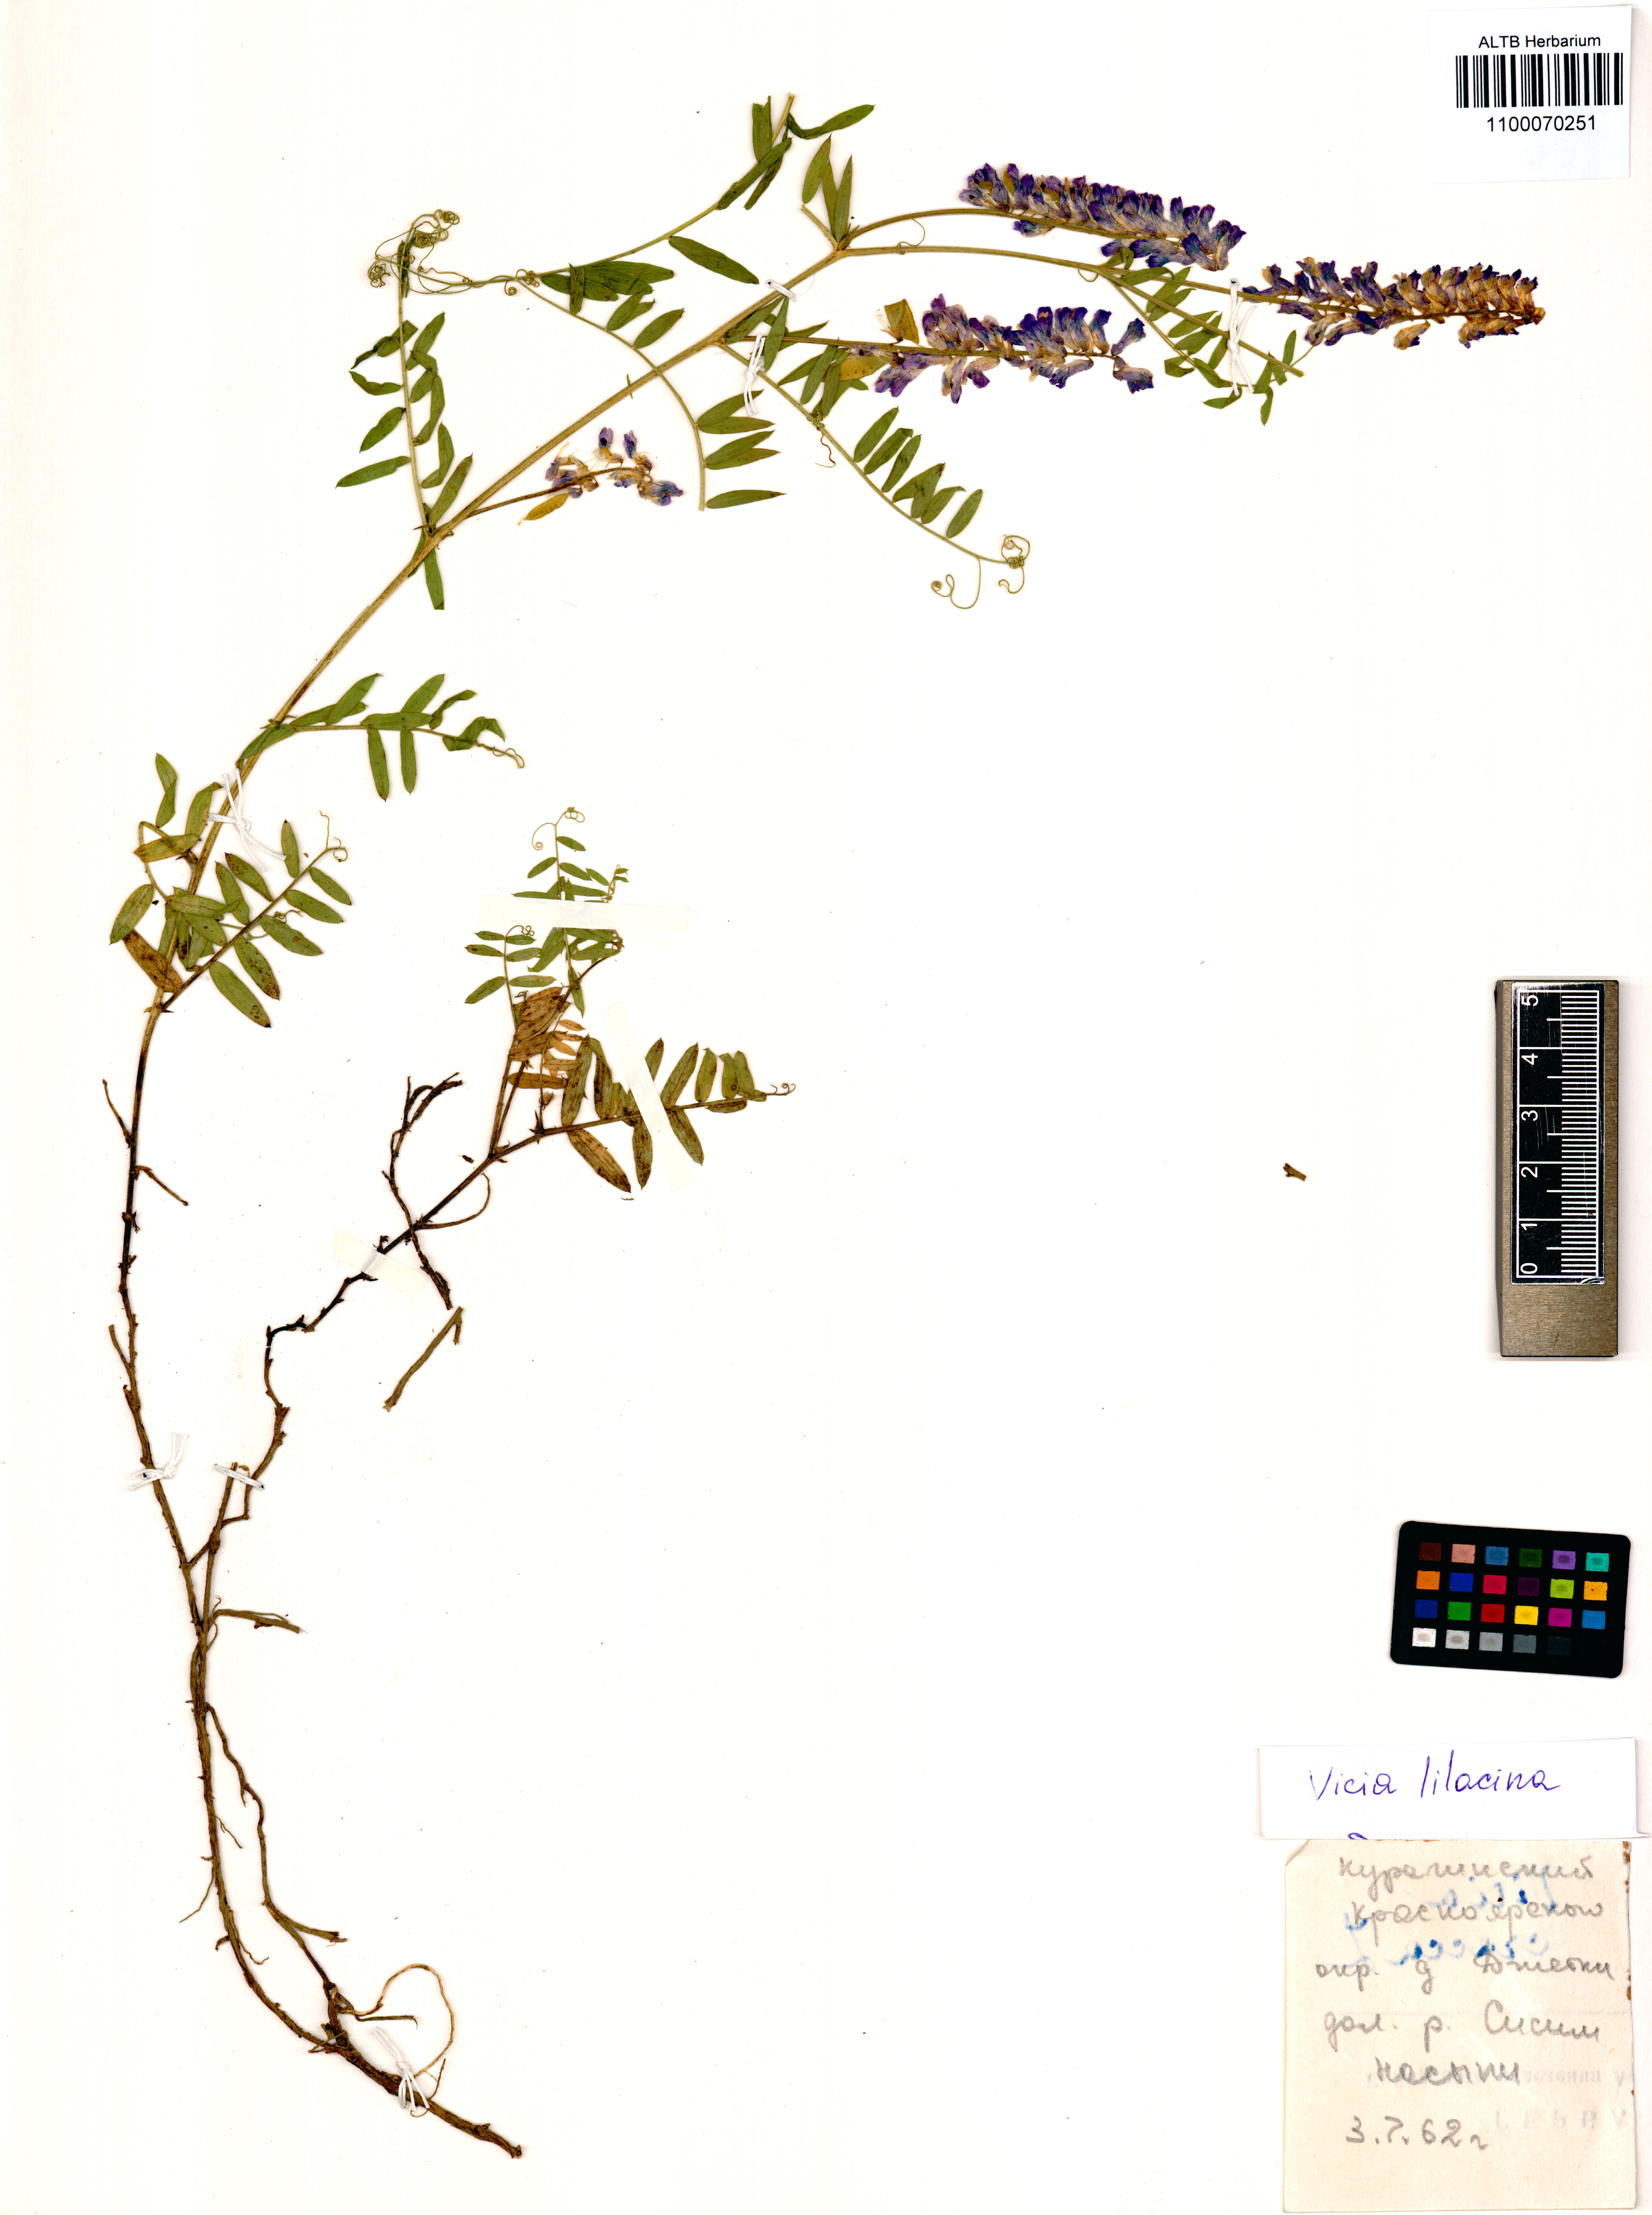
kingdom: Plantae
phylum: Tracheophyta
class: Magnoliopsida
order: Fabales
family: Fabaceae
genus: Vicia
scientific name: Vicia lilacina
